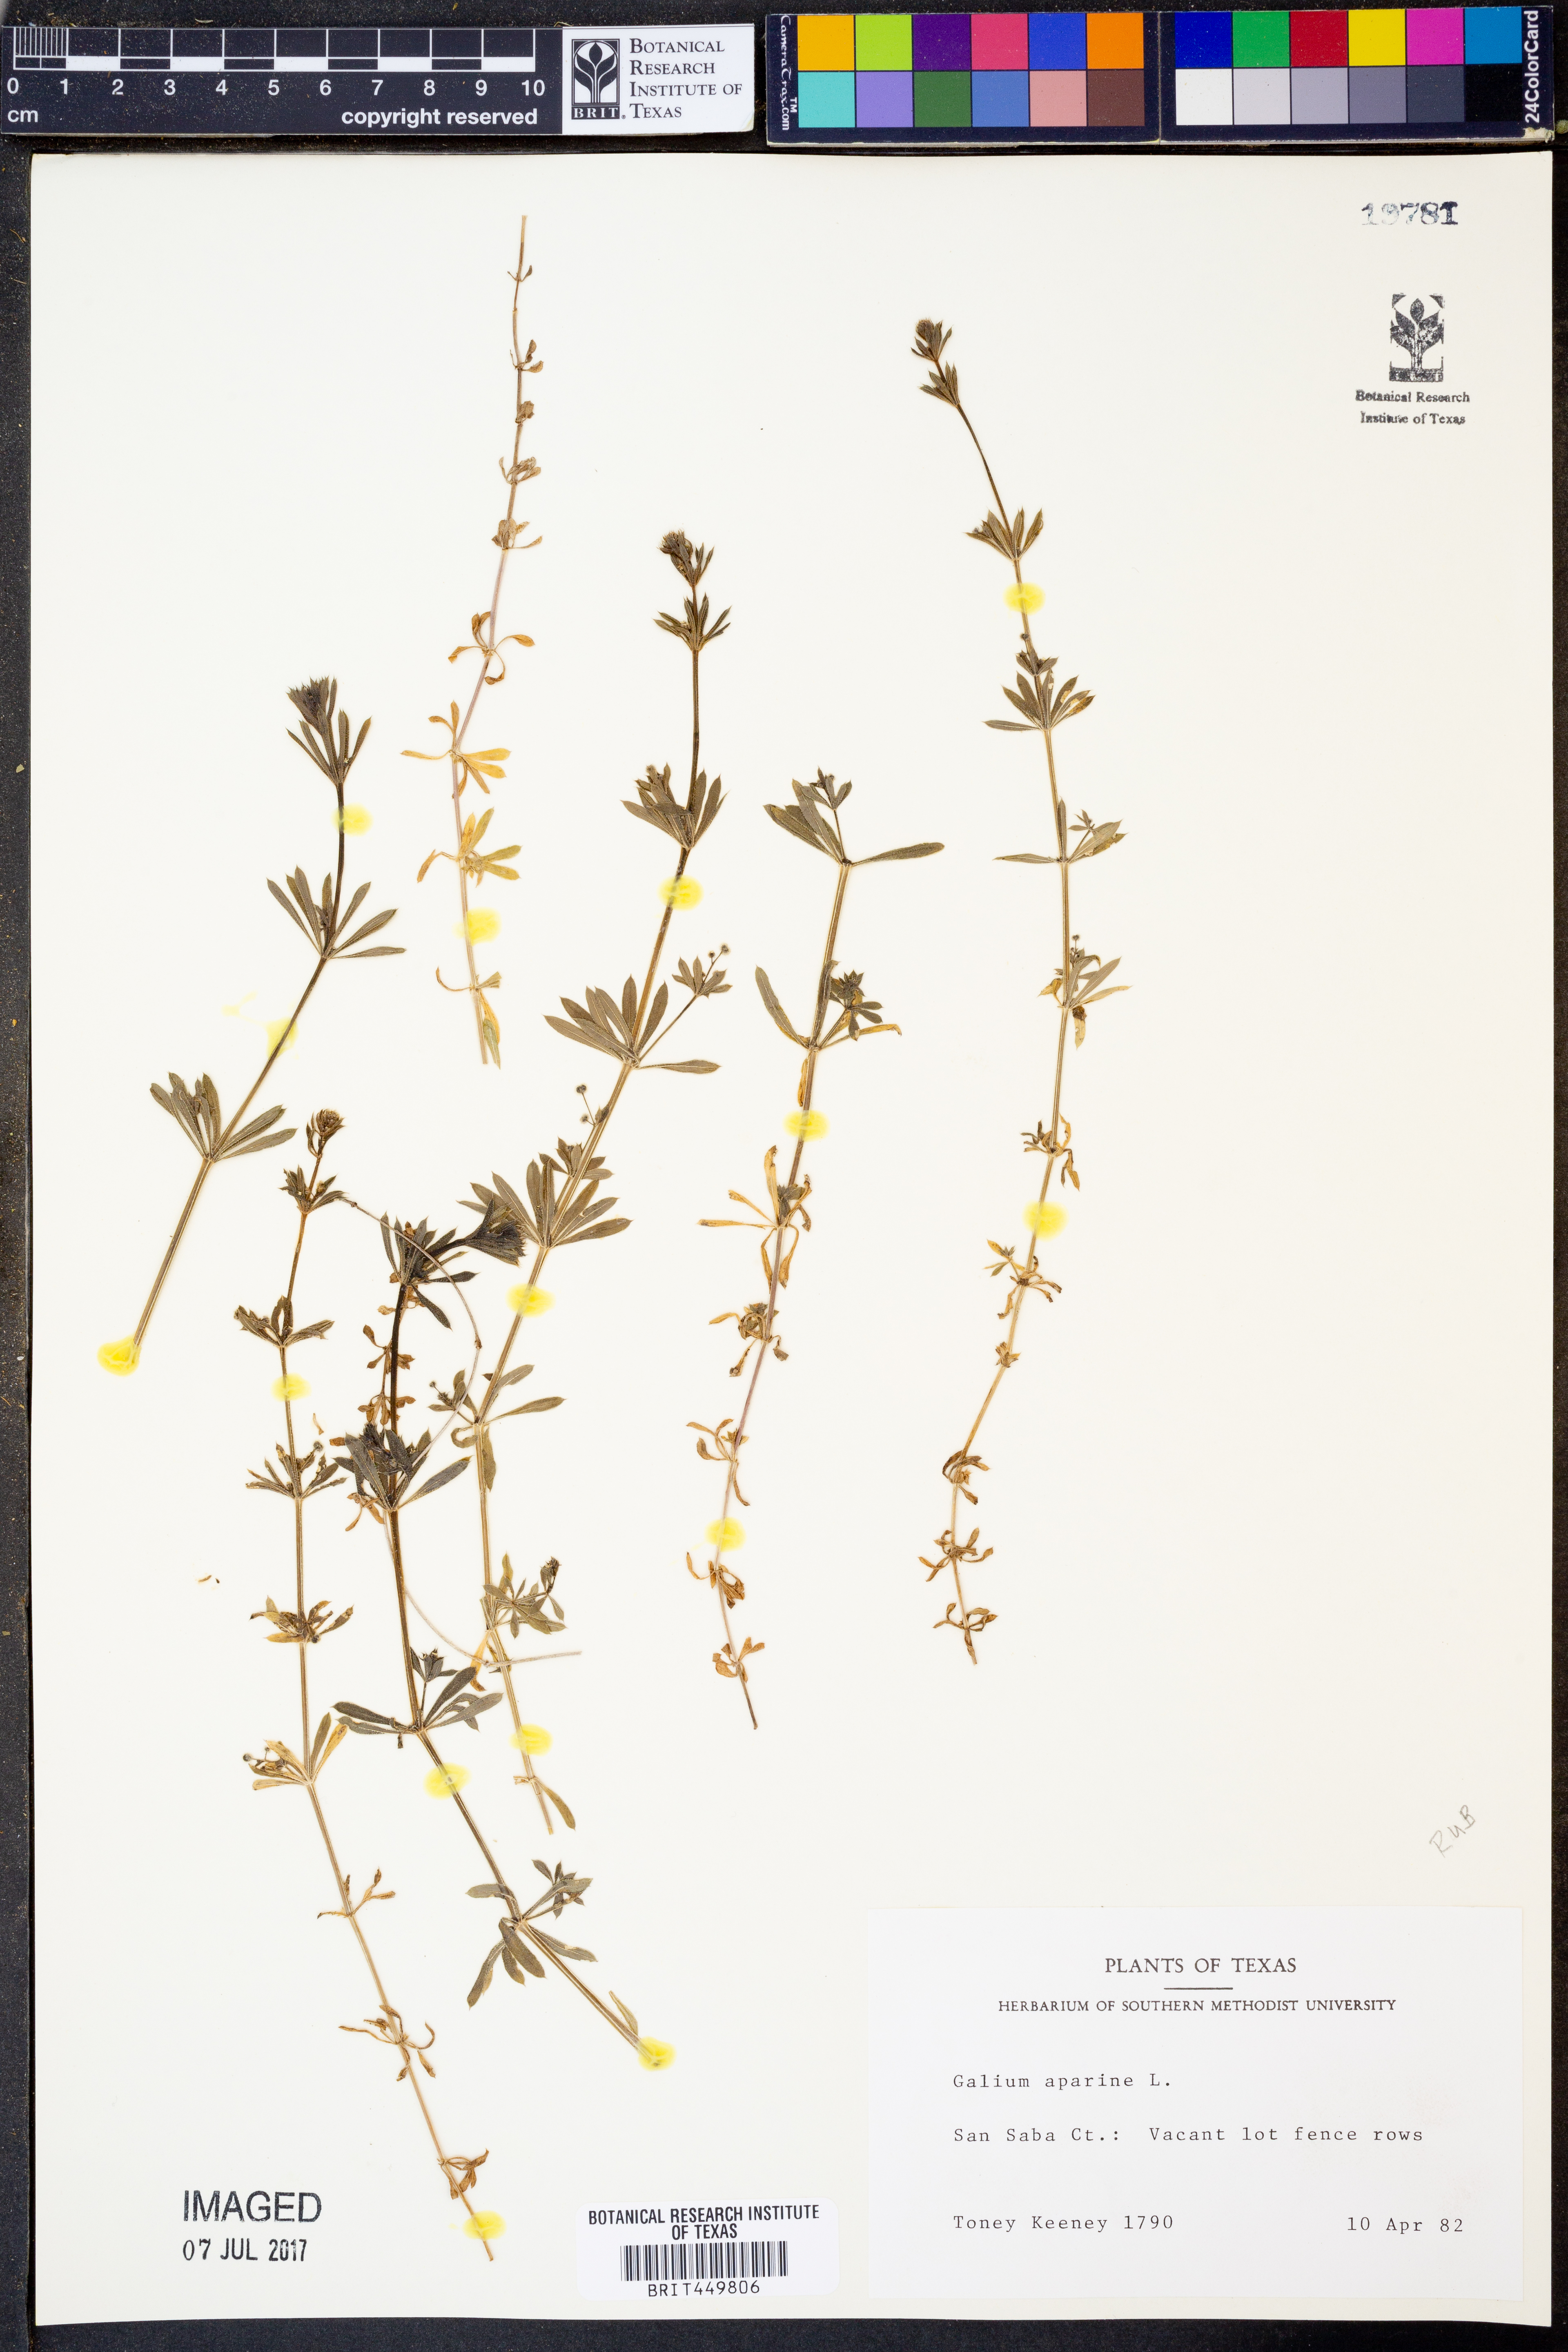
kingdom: Plantae
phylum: Tracheophyta
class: Magnoliopsida
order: Gentianales
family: Rubiaceae
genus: Galium
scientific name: Galium aparine
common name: Cleavers
